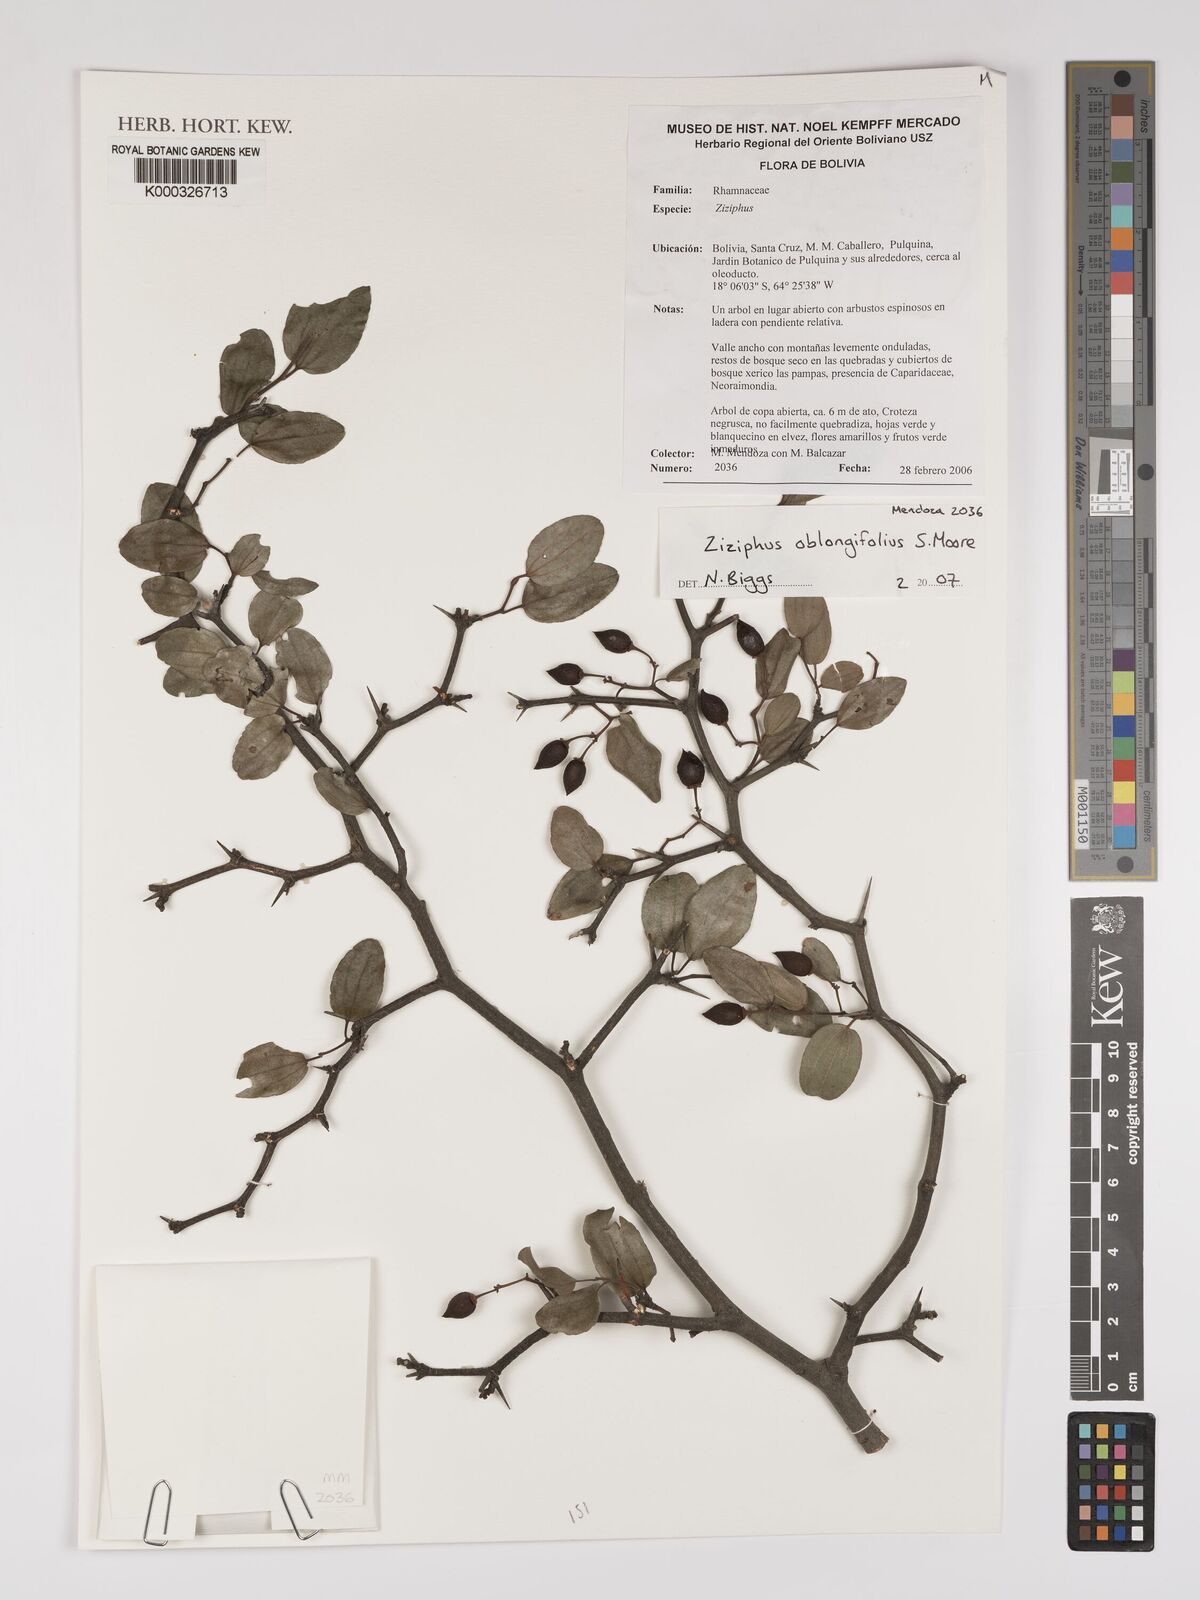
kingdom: Plantae
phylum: Tracheophyta
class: Magnoliopsida
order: Rosales
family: Rhamnaceae
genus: Sarcomphalus
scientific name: Sarcomphalus mistol
